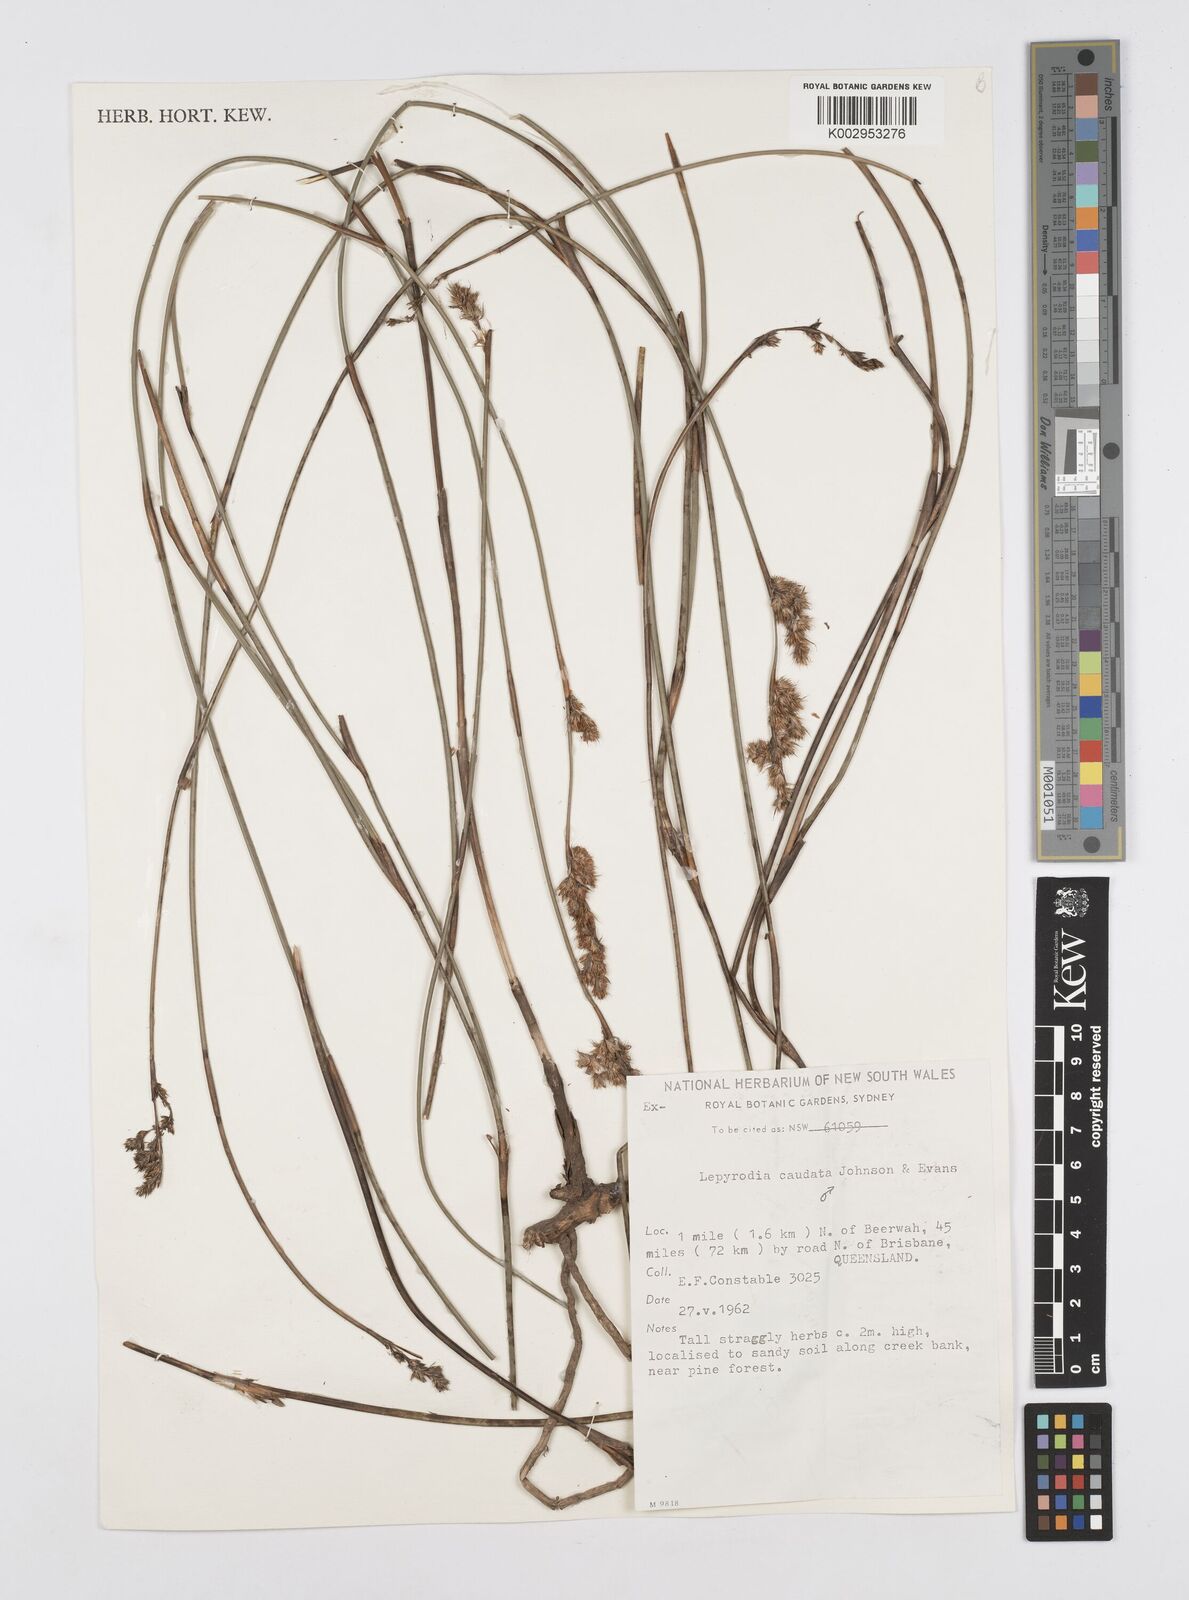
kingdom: Plantae
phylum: Tracheophyta
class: Liliopsida
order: Poales
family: Restionaceae
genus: Sporadanthus
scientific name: Sporadanthus caudatus
